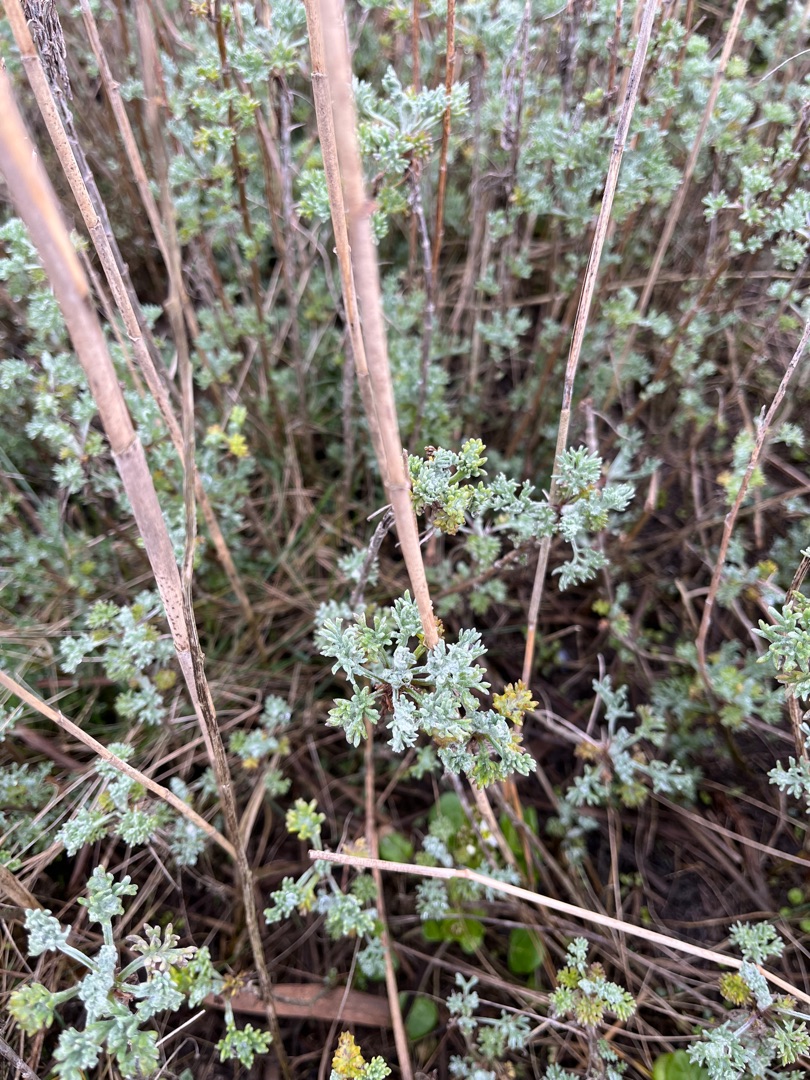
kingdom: Plantae
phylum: Tracheophyta
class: Magnoliopsida
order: Asterales
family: Asteraceae
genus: Artemisia
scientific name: Artemisia maritima
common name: Strandmalurt
